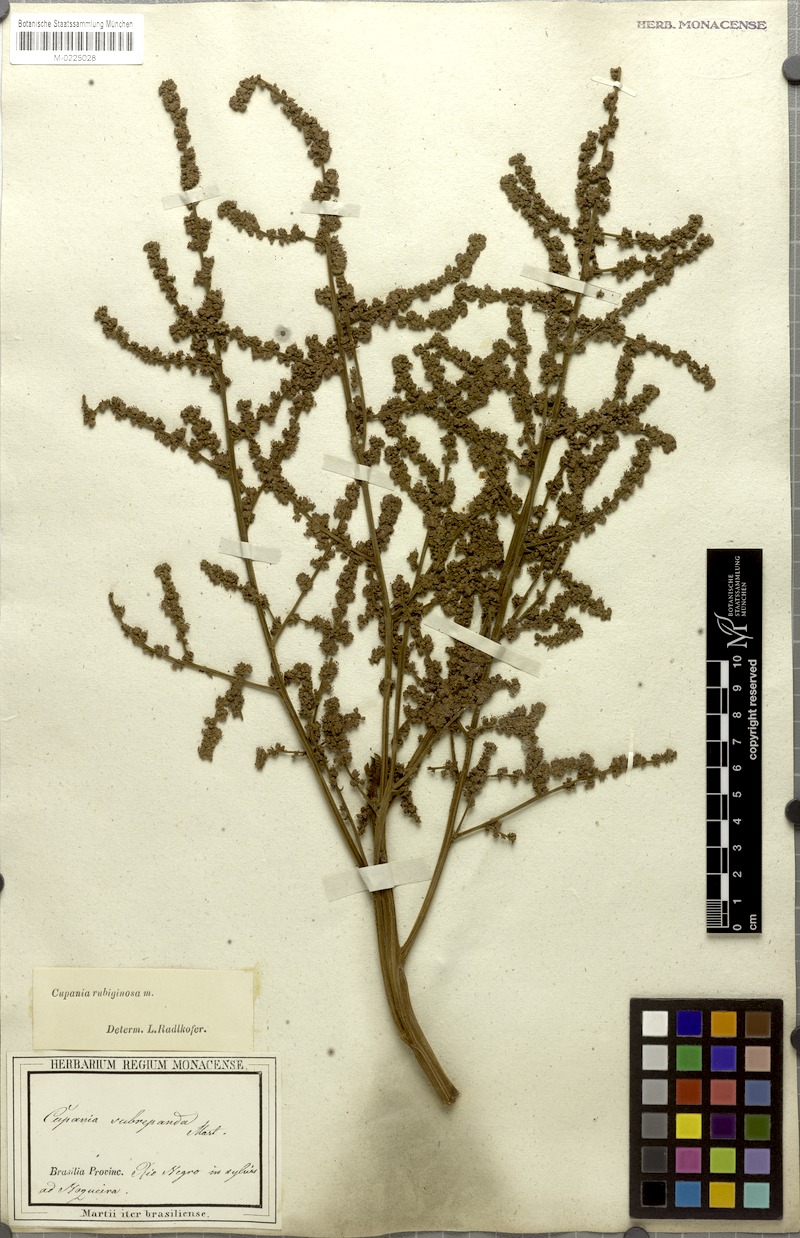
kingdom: Plantae
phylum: Tracheophyta
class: Magnoliopsida
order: Sapindales
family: Sapindaceae
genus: Cupania
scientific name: Cupania rubiginosa
